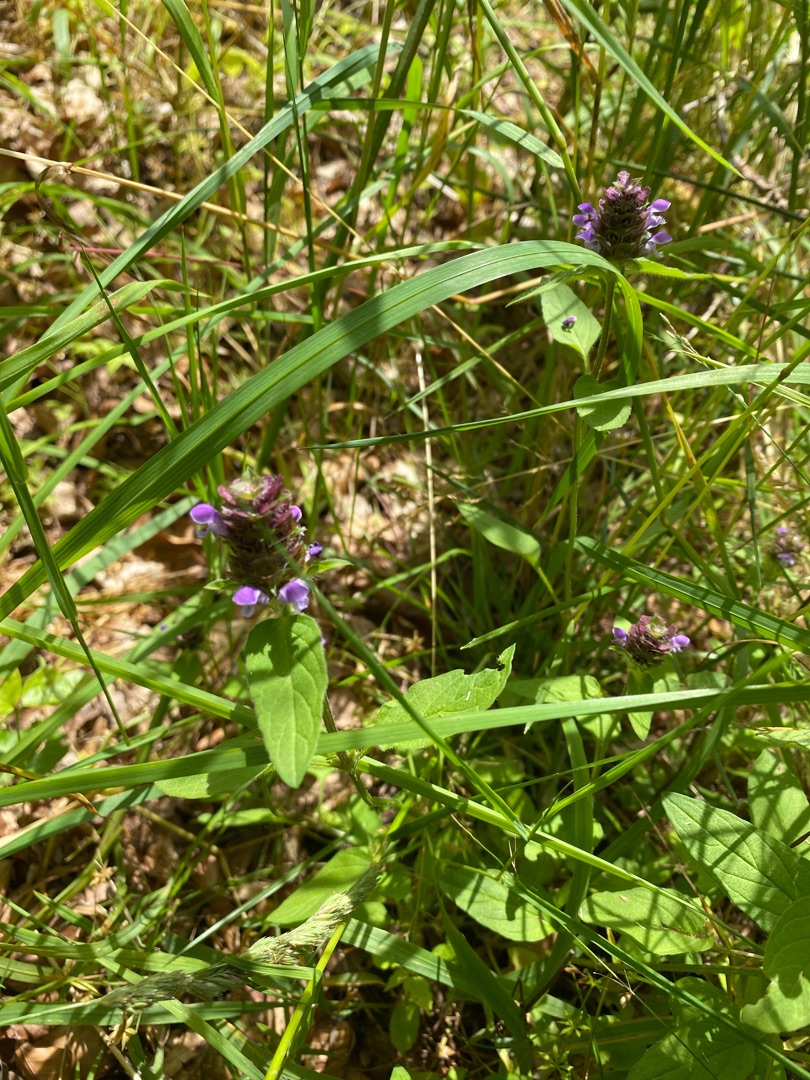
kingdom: Plantae
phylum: Tracheophyta
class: Magnoliopsida
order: Lamiales
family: Lamiaceae
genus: Prunella
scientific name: Prunella vulgaris
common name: Almindelig brunelle
